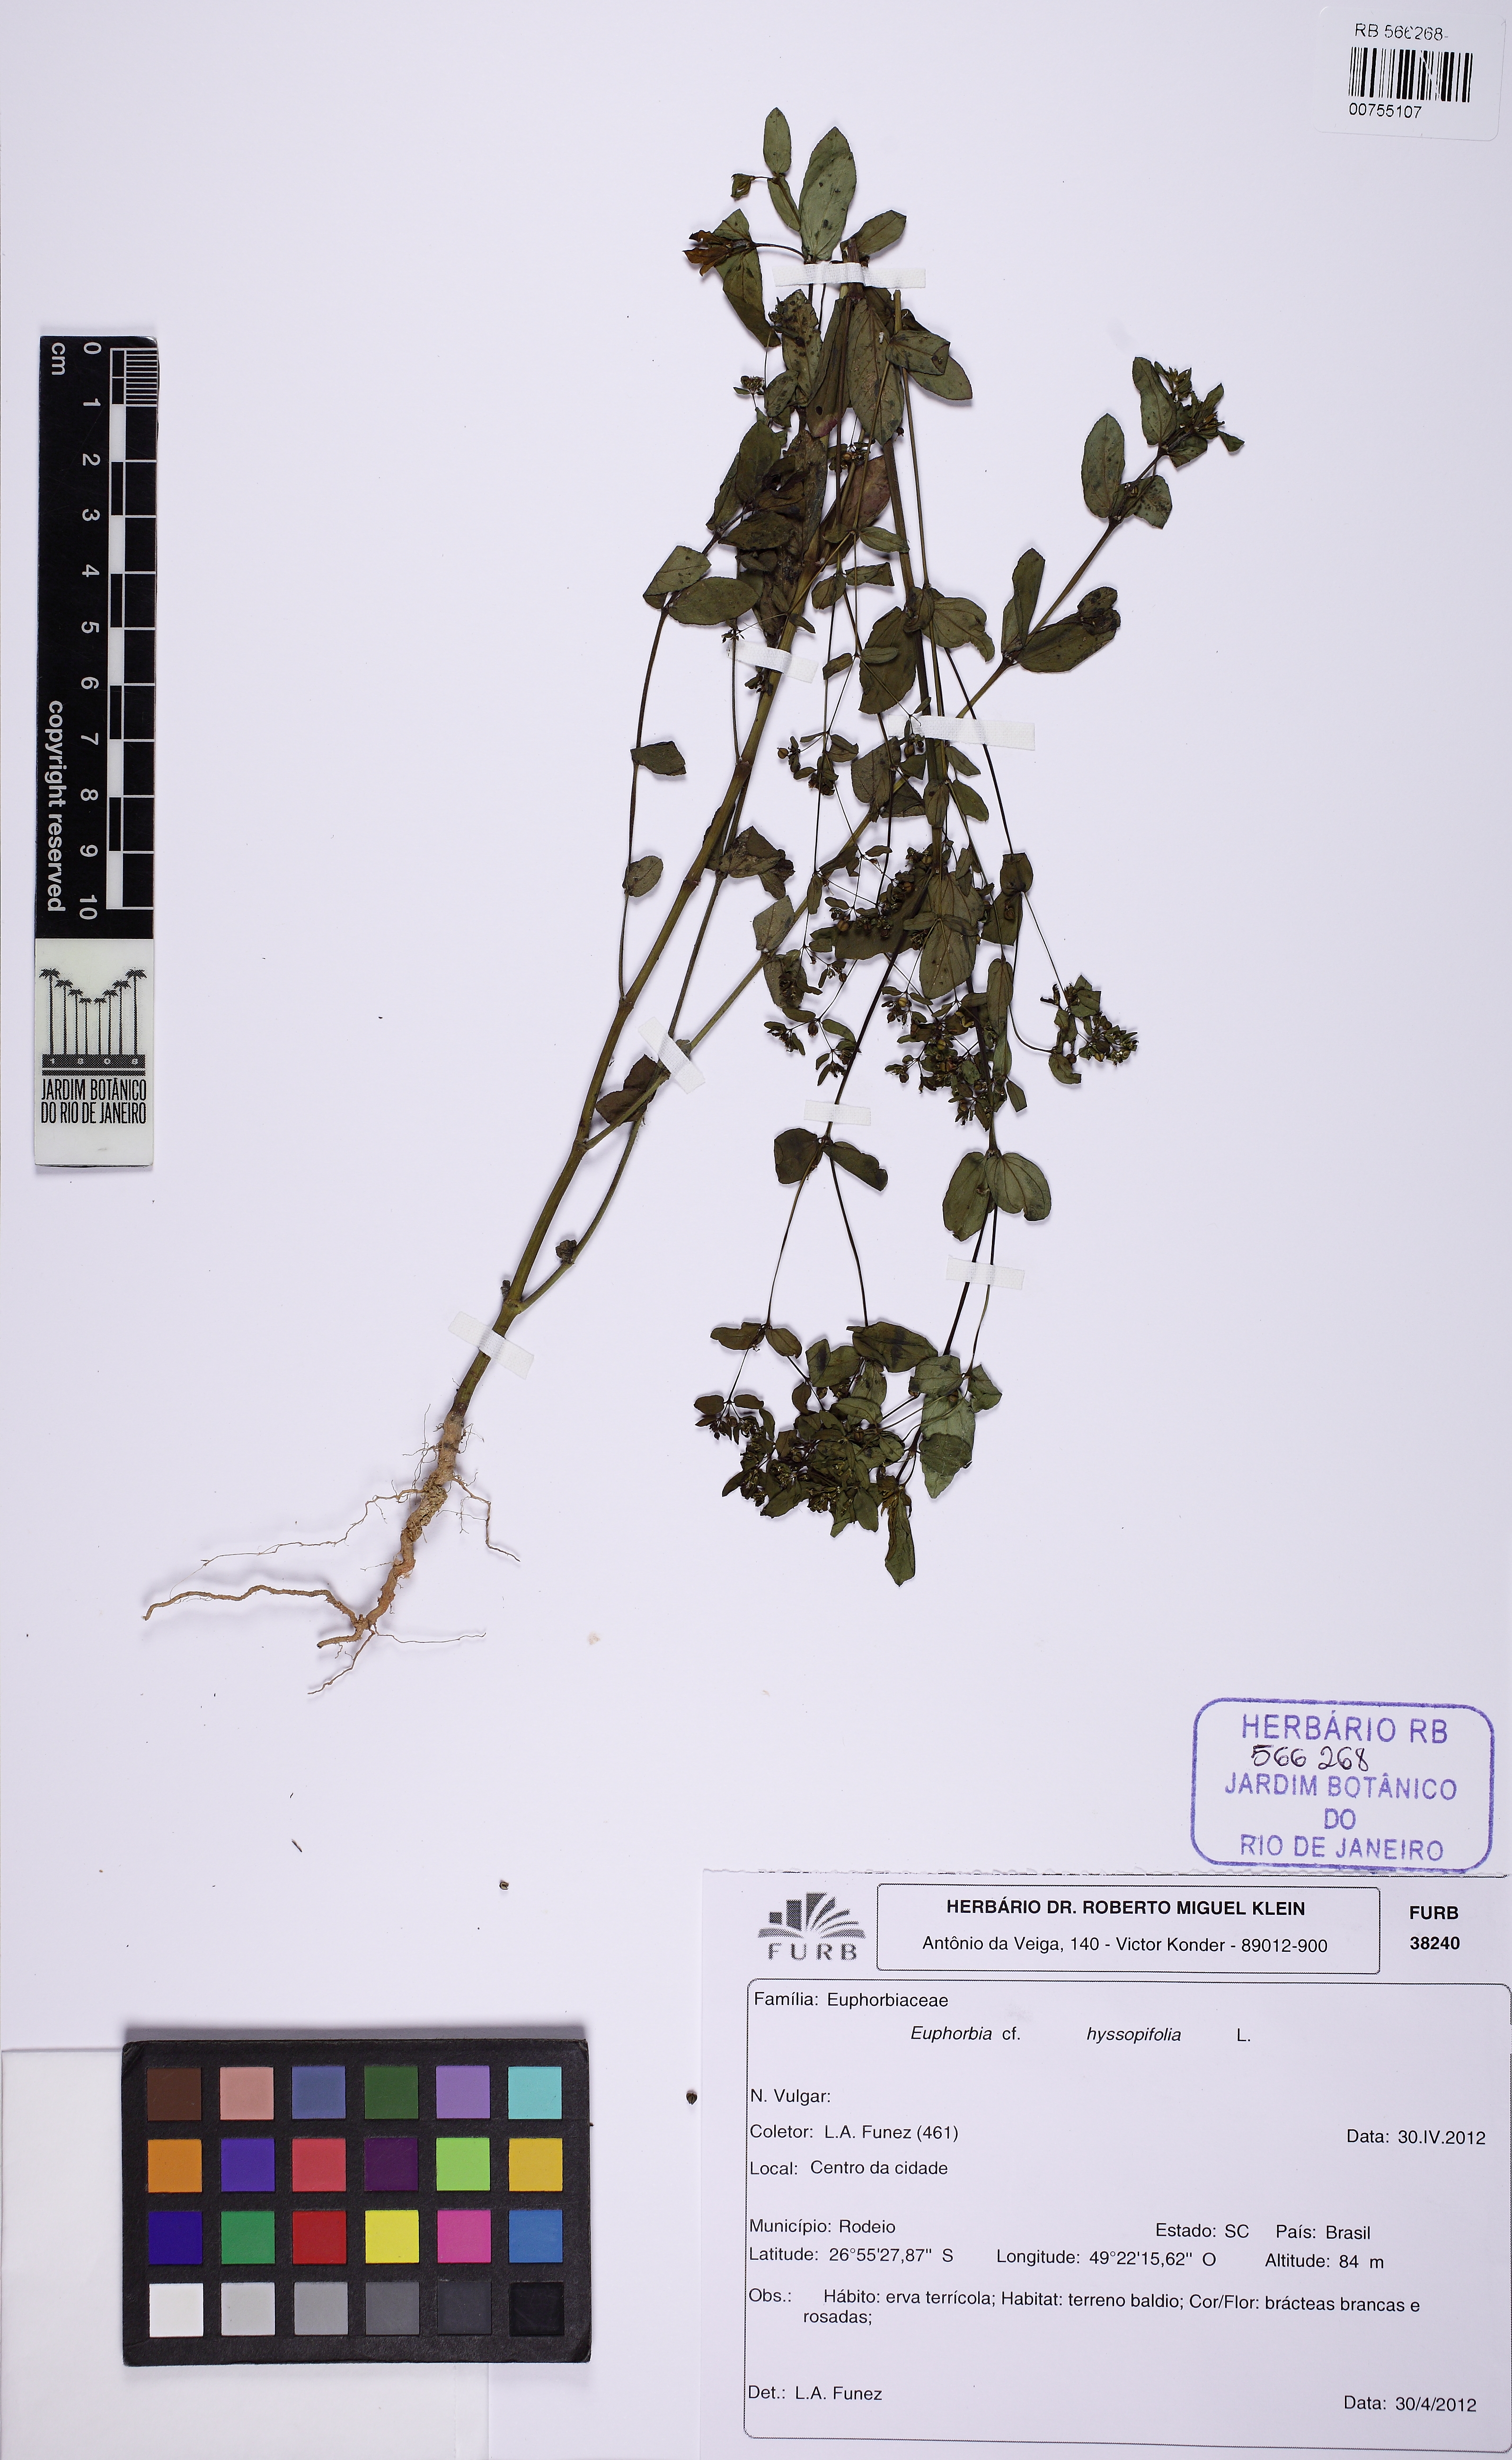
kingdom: Plantae
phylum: Tracheophyta
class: Magnoliopsida
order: Malpighiales
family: Euphorbiaceae
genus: Euphorbia
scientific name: Euphorbia hyssopifolia
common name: Hyssopleaf sandmat
